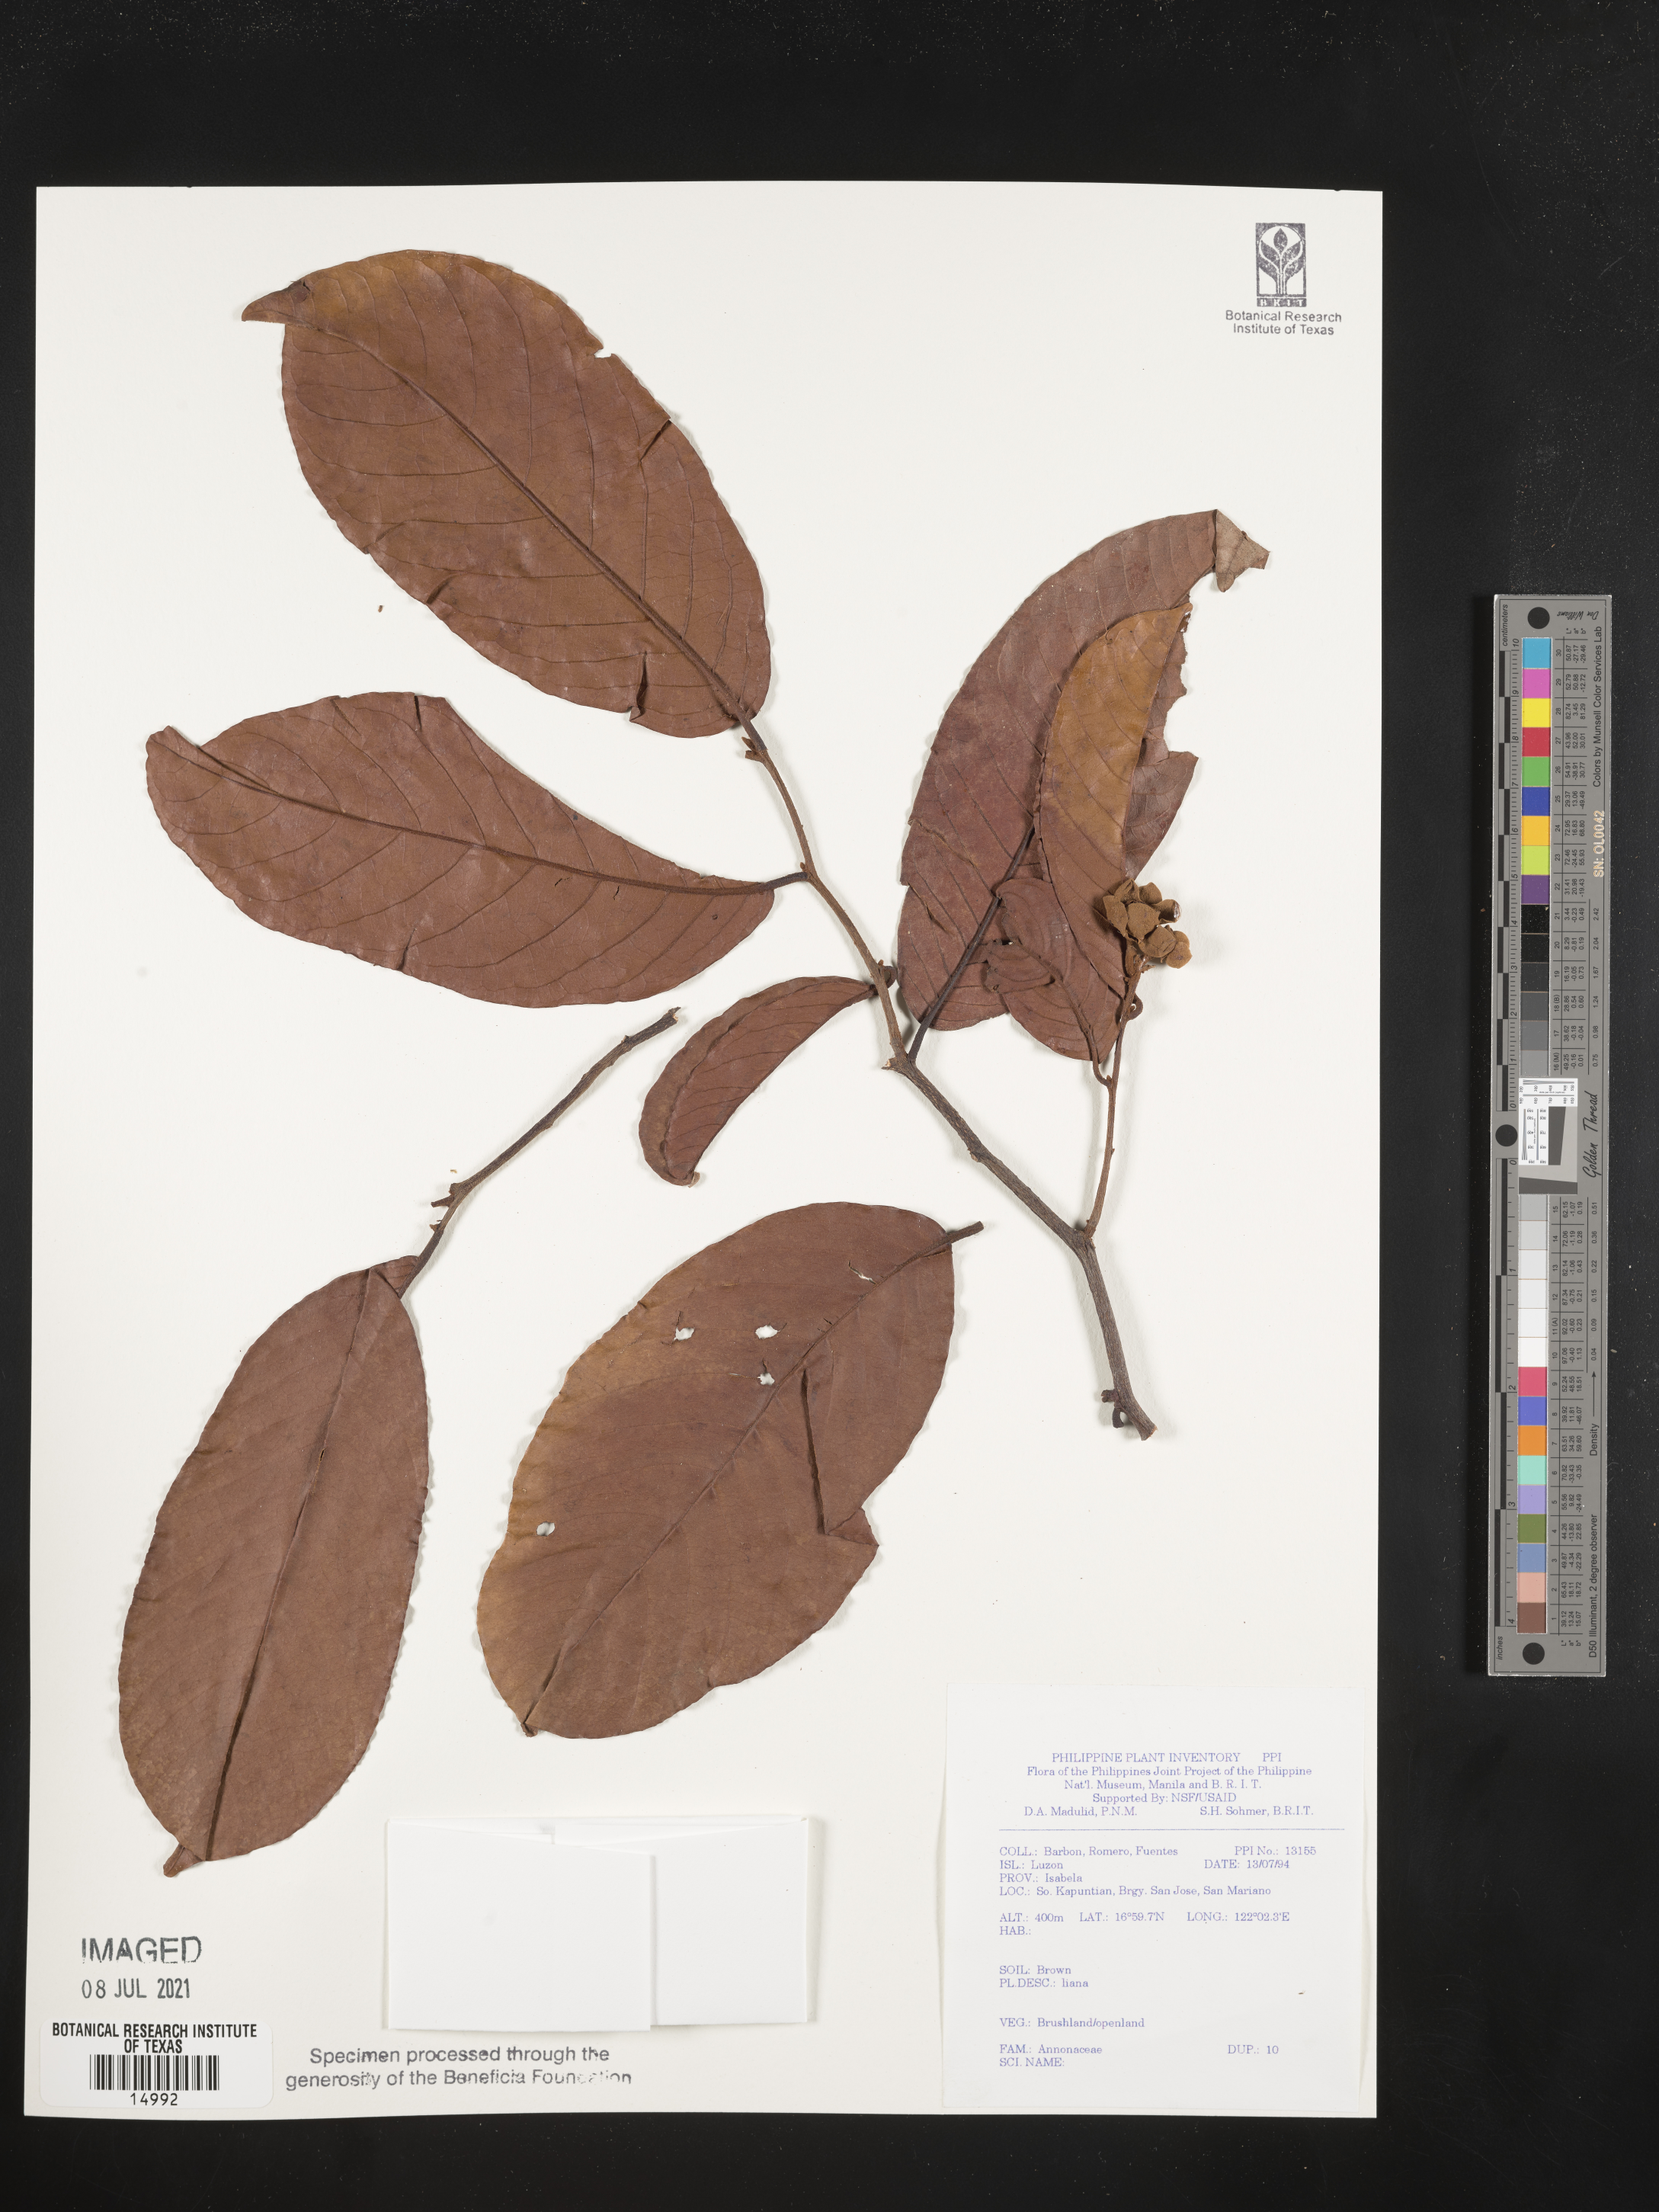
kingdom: Plantae
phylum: Tracheophyta
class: Magnoliopsida
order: Magnoliales
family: Annonaceae
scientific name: Annonaceae
